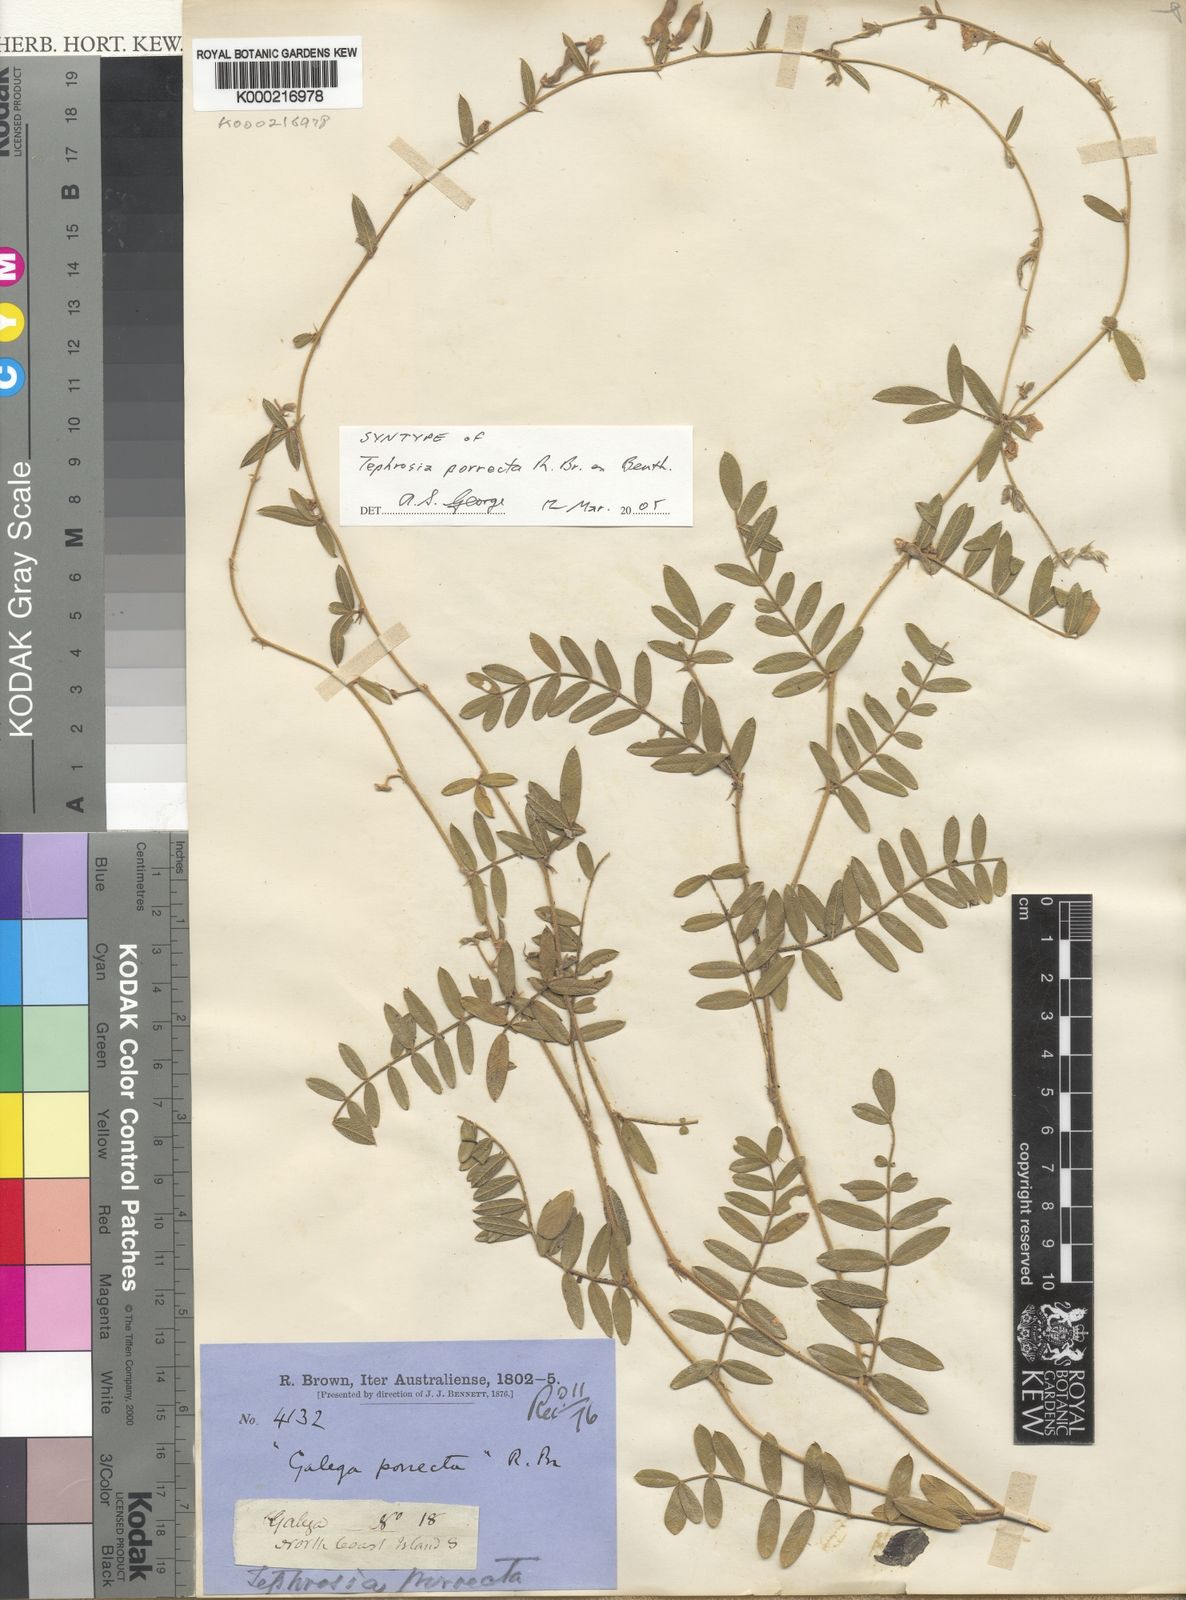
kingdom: Plantae
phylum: Tracheophyta
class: Magnoliopsida
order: Fabales
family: Fabaceae
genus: Tephrosia
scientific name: Tephrosia porrecta
